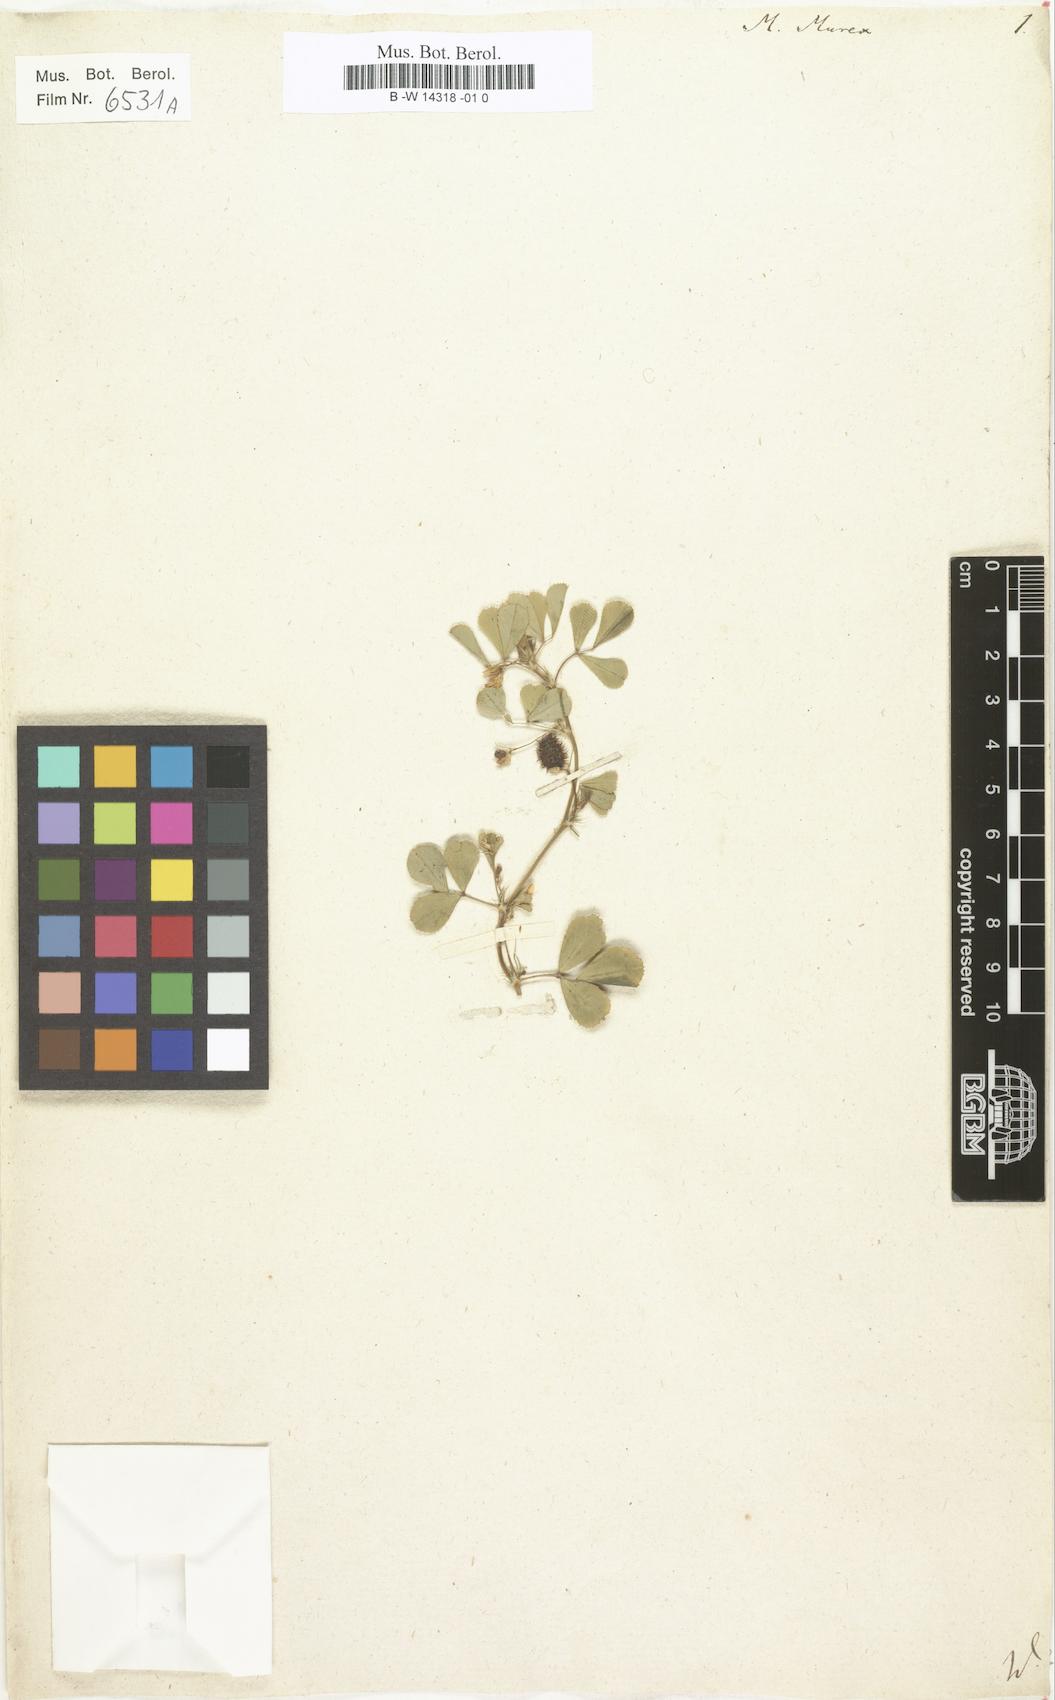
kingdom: Plantae
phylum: Tracheophyta
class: Magnoliopsida
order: Fabales
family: Fabaceae
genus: Medicago
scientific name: Medicago murex
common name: Murex
